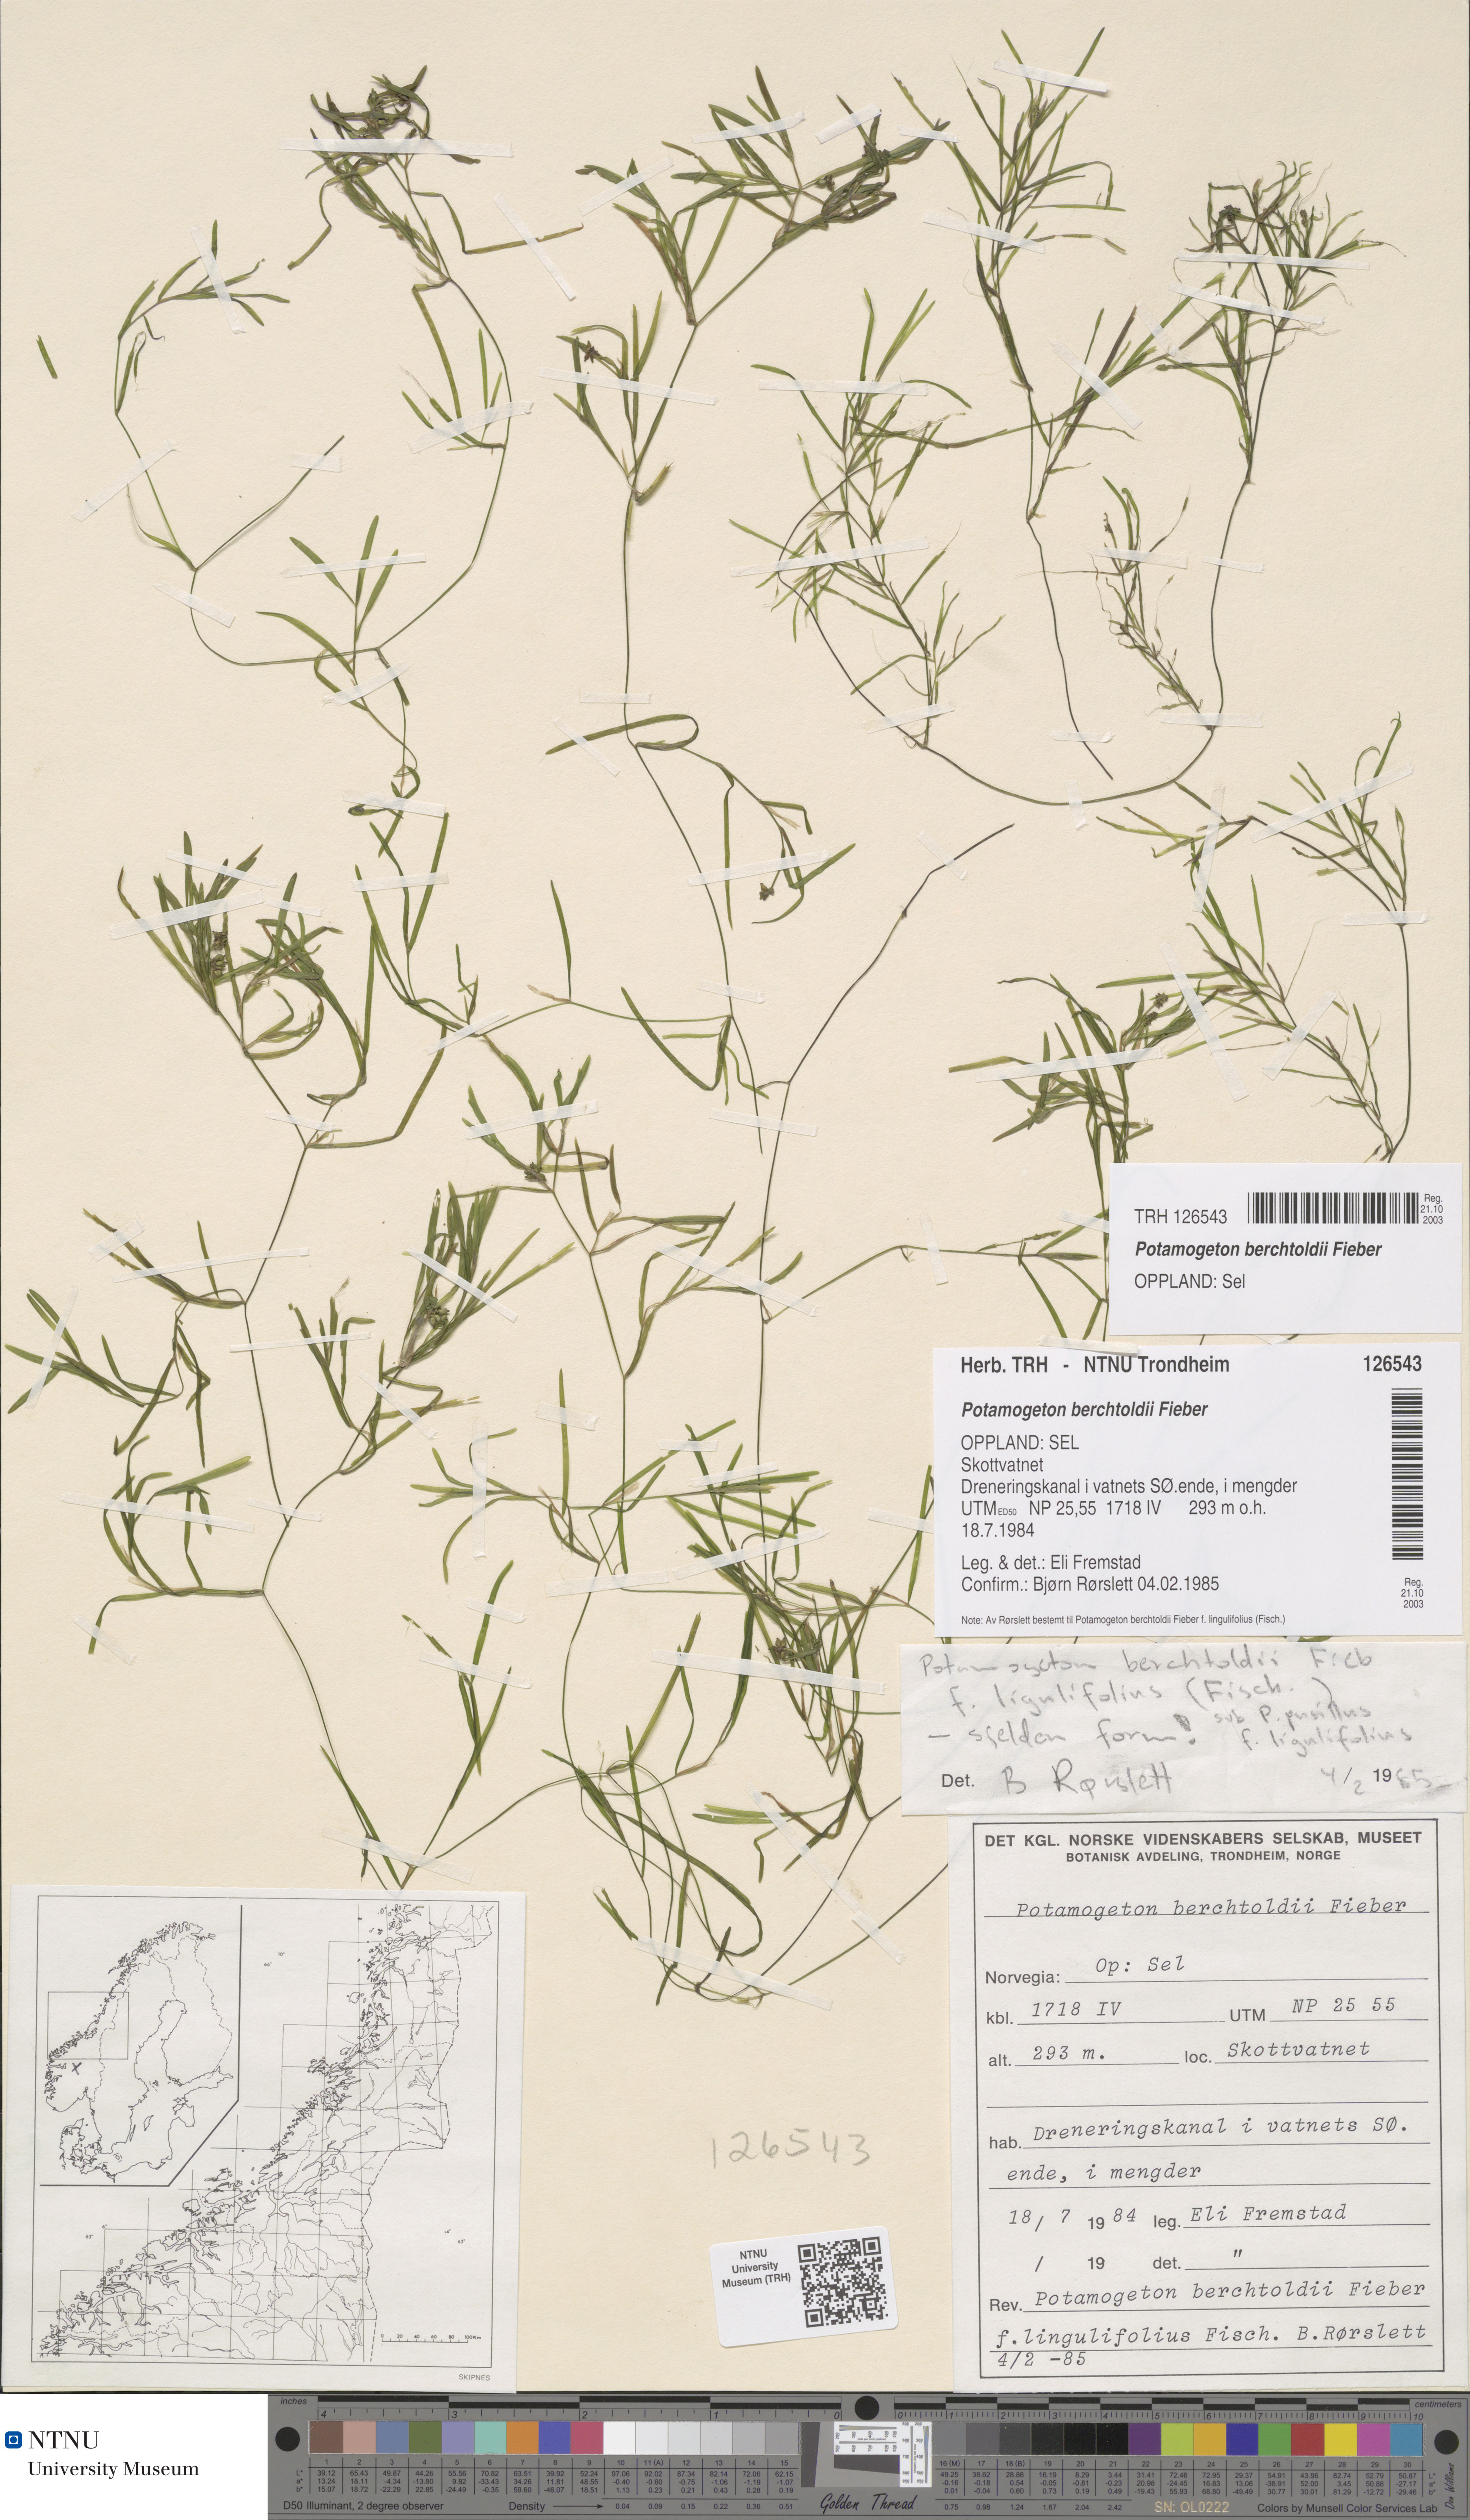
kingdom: Plantae
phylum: Tracheophyta
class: Liliopsida
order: Alismatales
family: Potamogetonaceae
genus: Potamogeton
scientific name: Potamogeton berchtoldii
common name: Small pondweed
